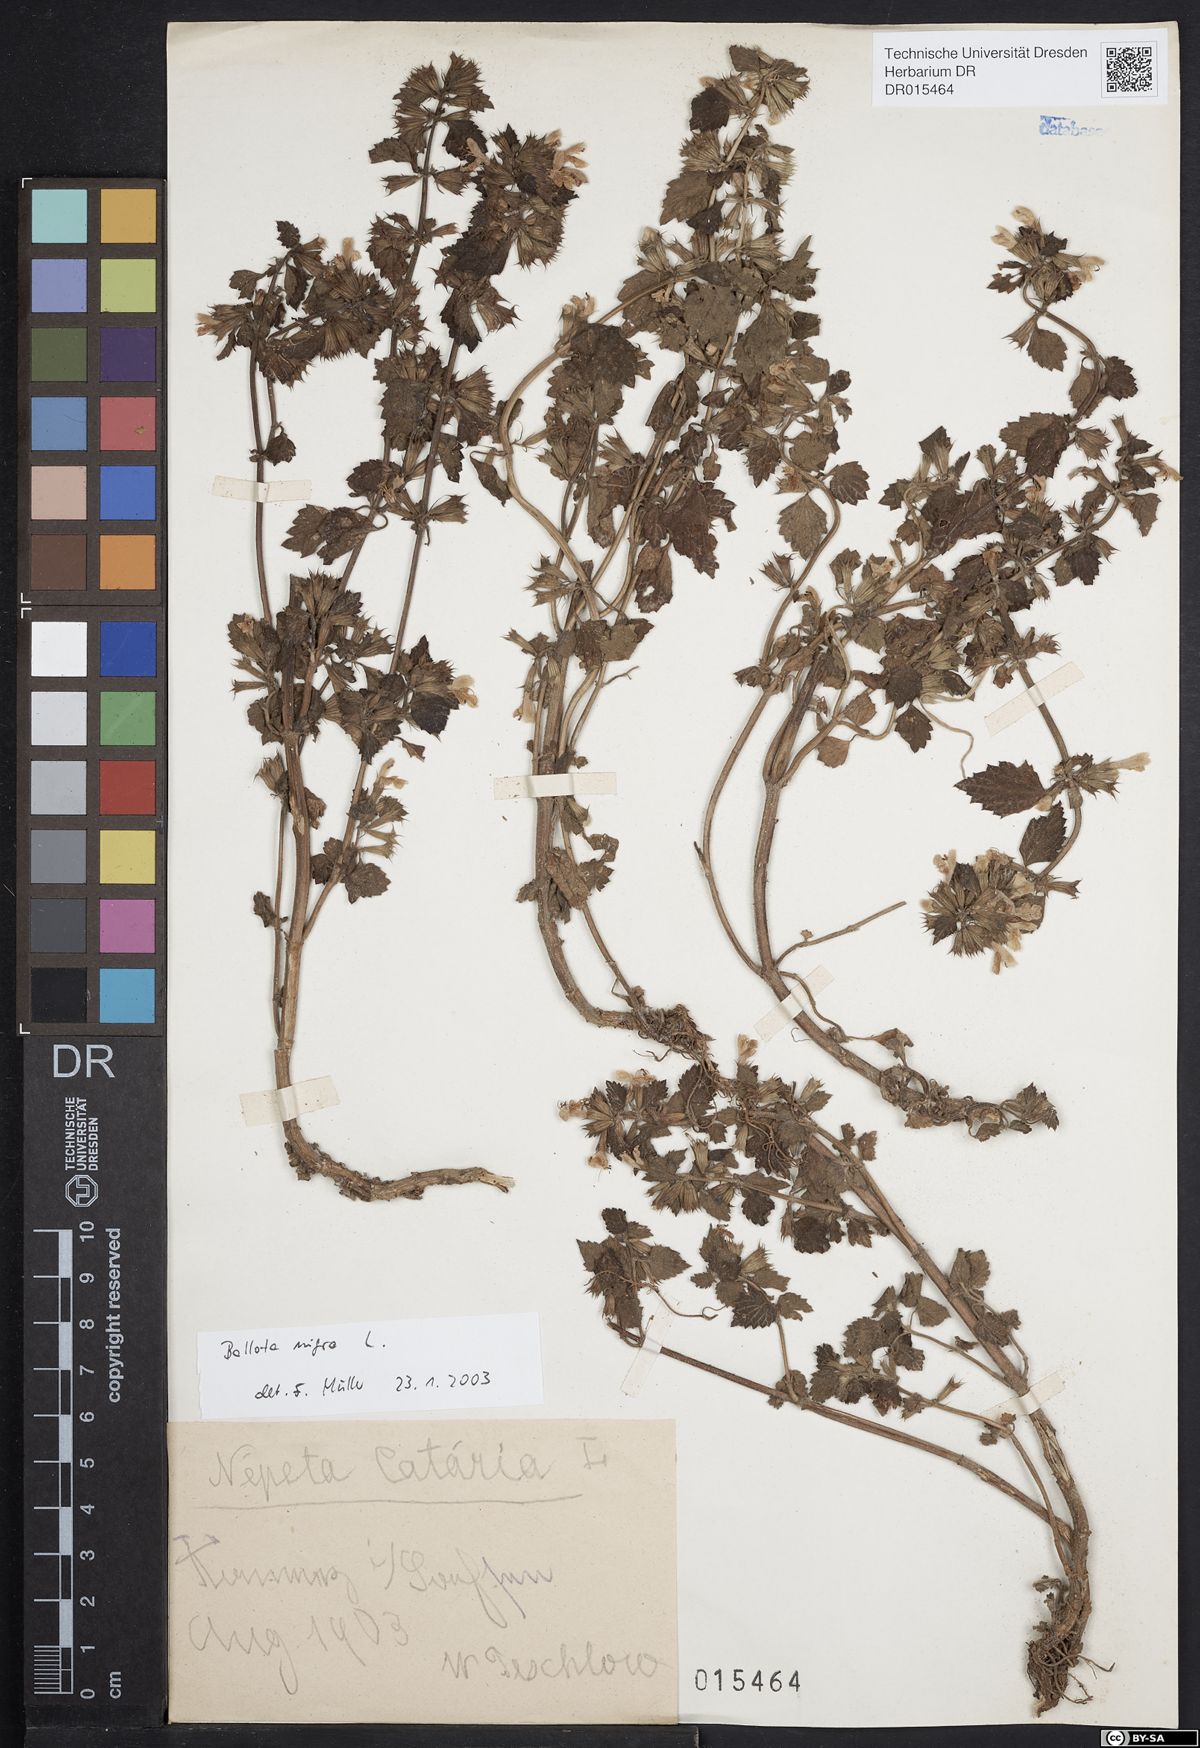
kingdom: Plantae
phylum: Tracheophyta
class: Magnoliopsida
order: Lamiales
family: Lamiaceae
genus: Ballota
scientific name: Ballota nigra
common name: Black horehound
